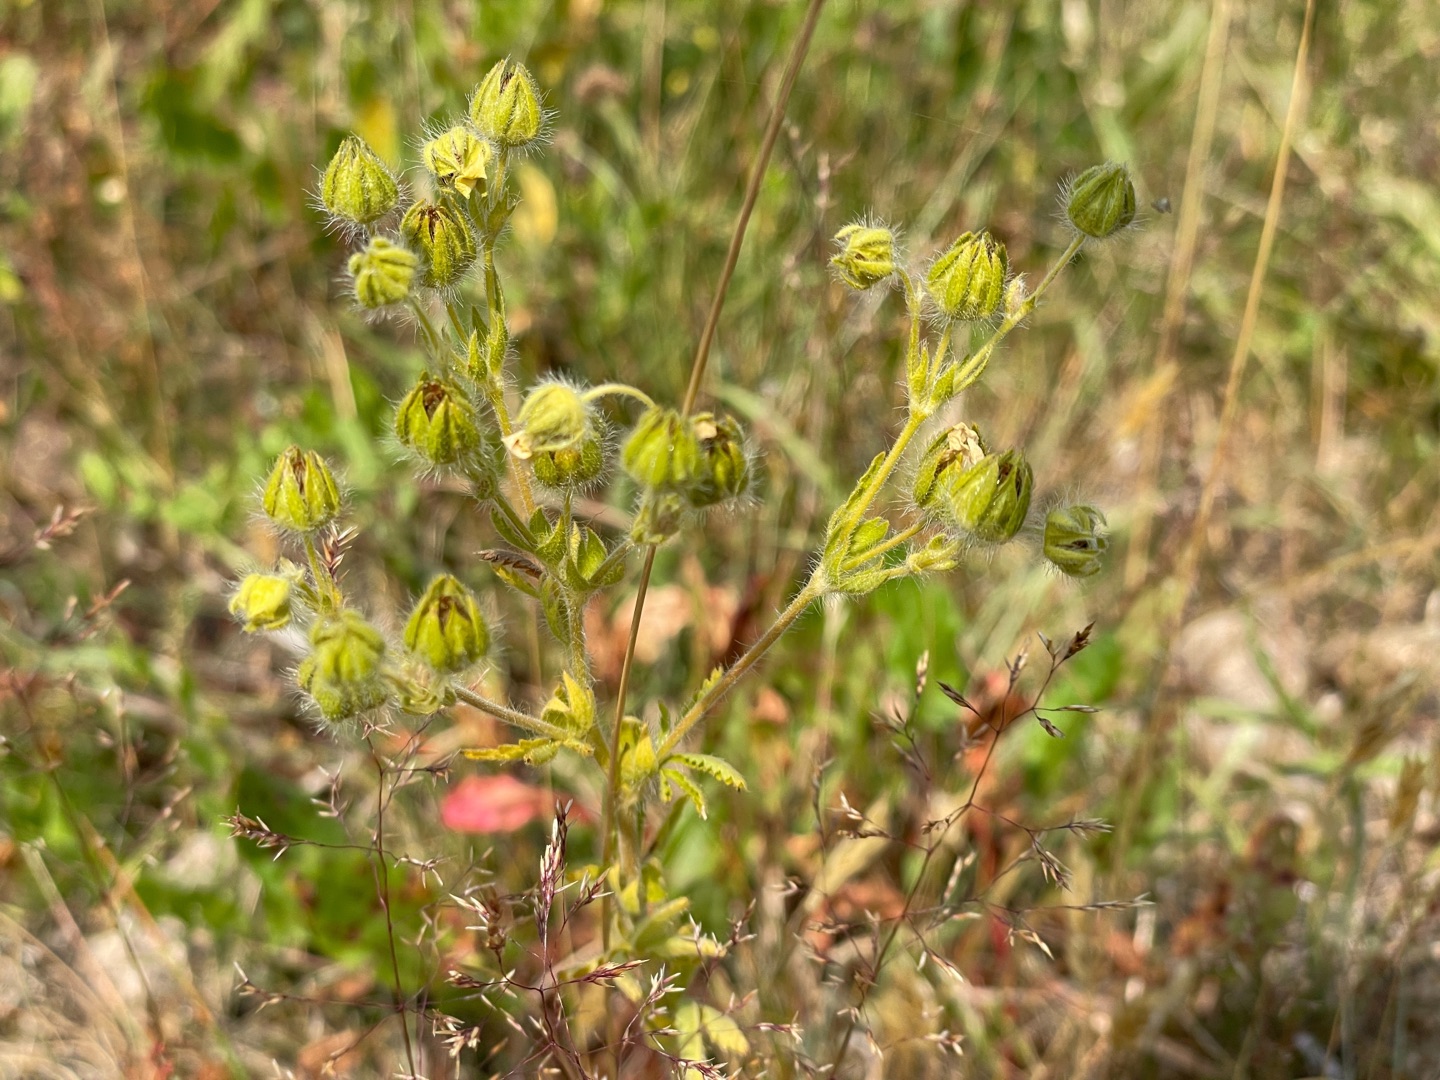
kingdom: Plantae
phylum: Tracheophyta
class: Magnoliopsida
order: Rosales
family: Rosaceae
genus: Potentilla
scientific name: Potentilla recta
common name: Rank potentil
